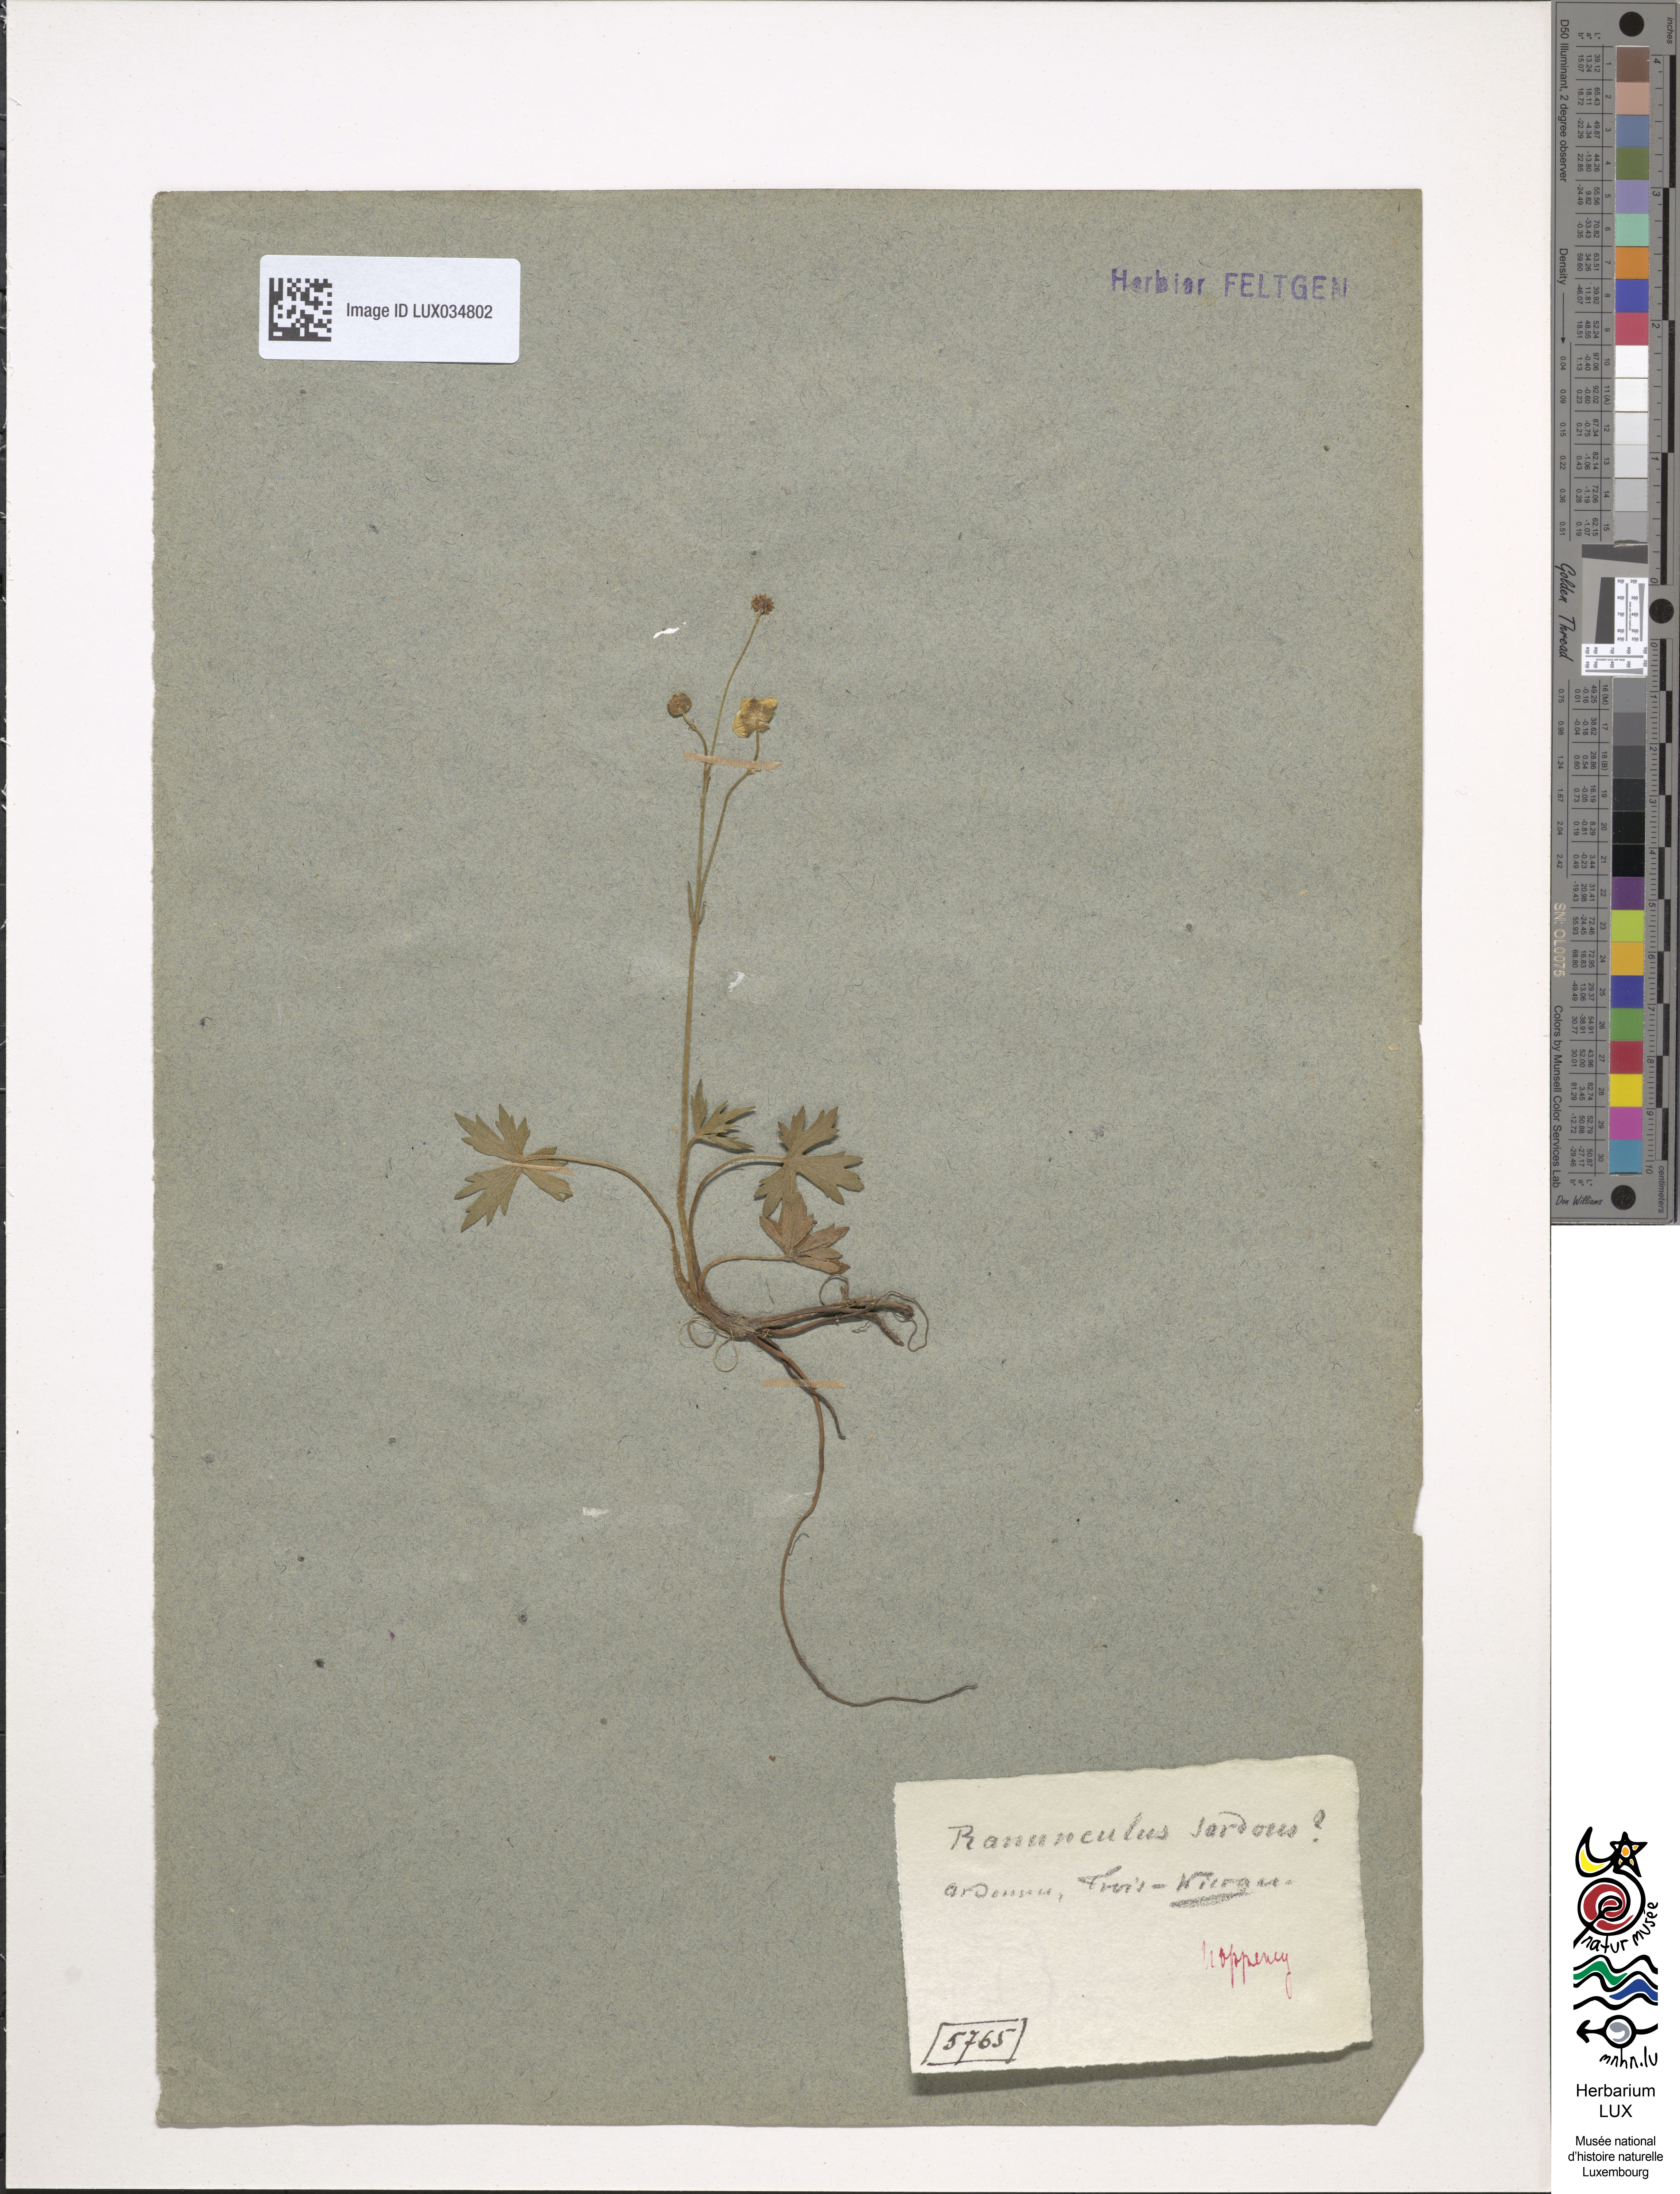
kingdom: Plantae
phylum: Tracheophyta
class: Magnoliopsida
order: Ranunculales
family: Ranunculaceae
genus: Ranunculus
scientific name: Ranunculus sardous
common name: Hairy buttercup
